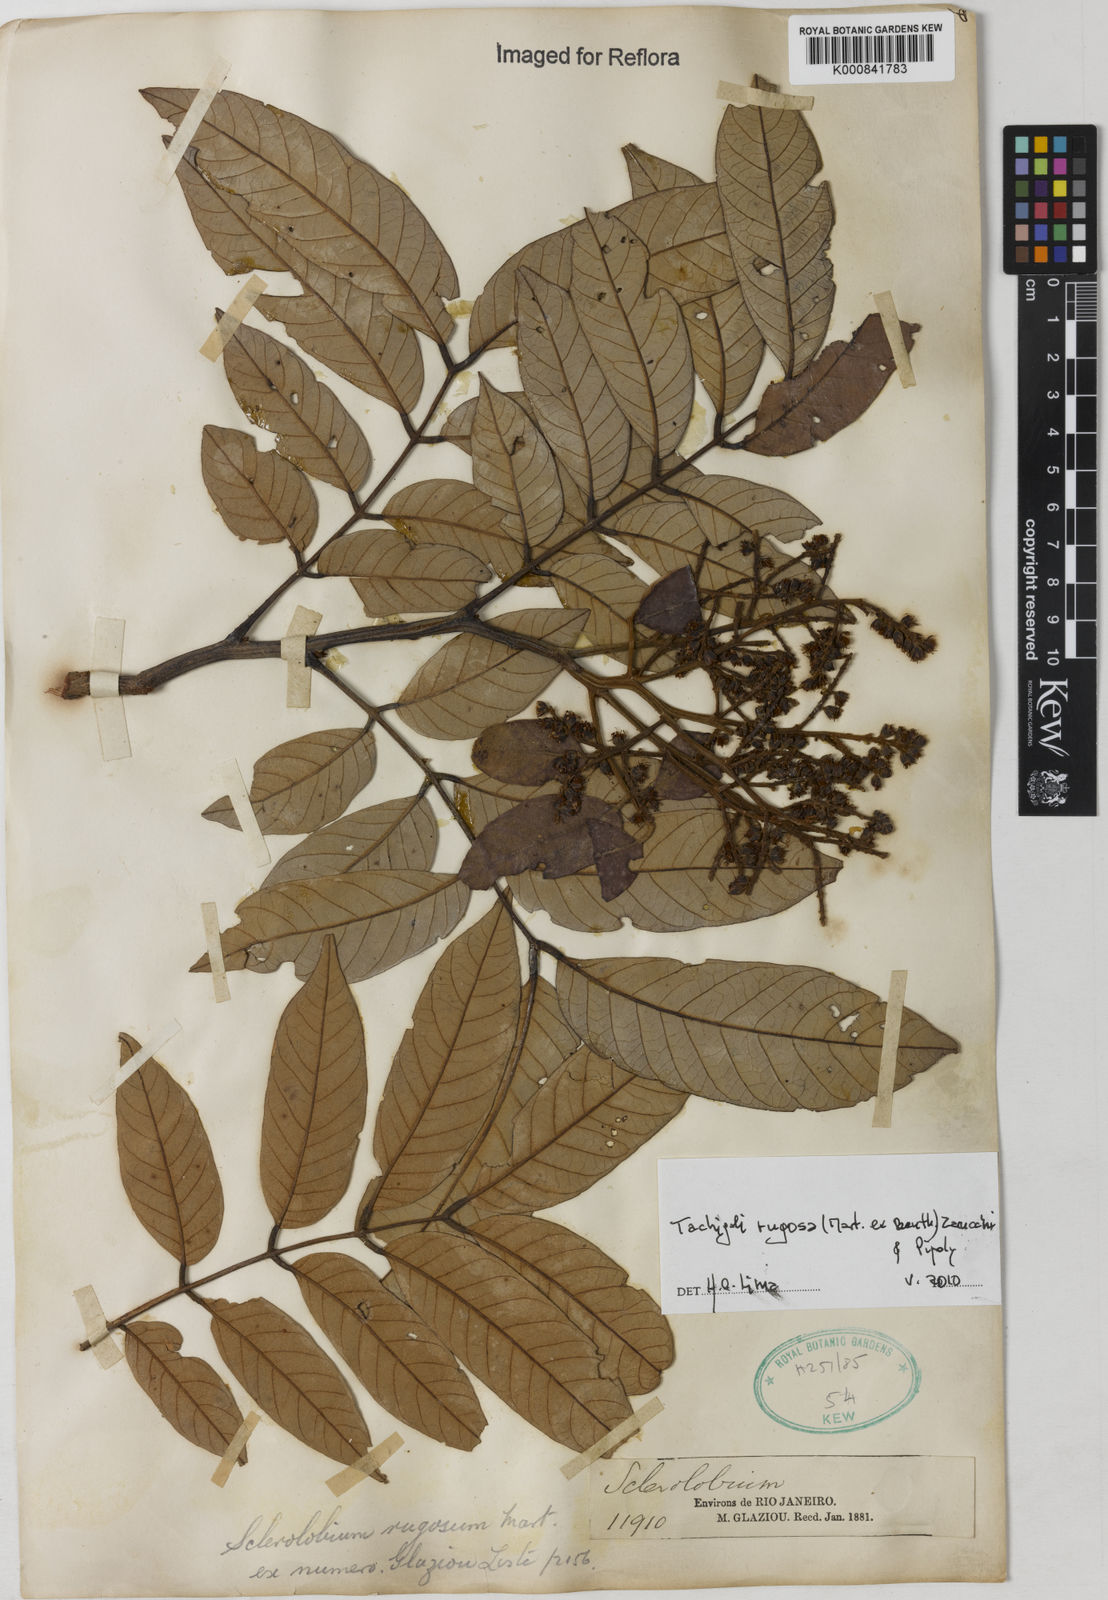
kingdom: Plantae
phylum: Tracheophyta
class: Magnoliopsida
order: Fabales
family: Fabaceae
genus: Tachigali
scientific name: Tachigali rugosa
